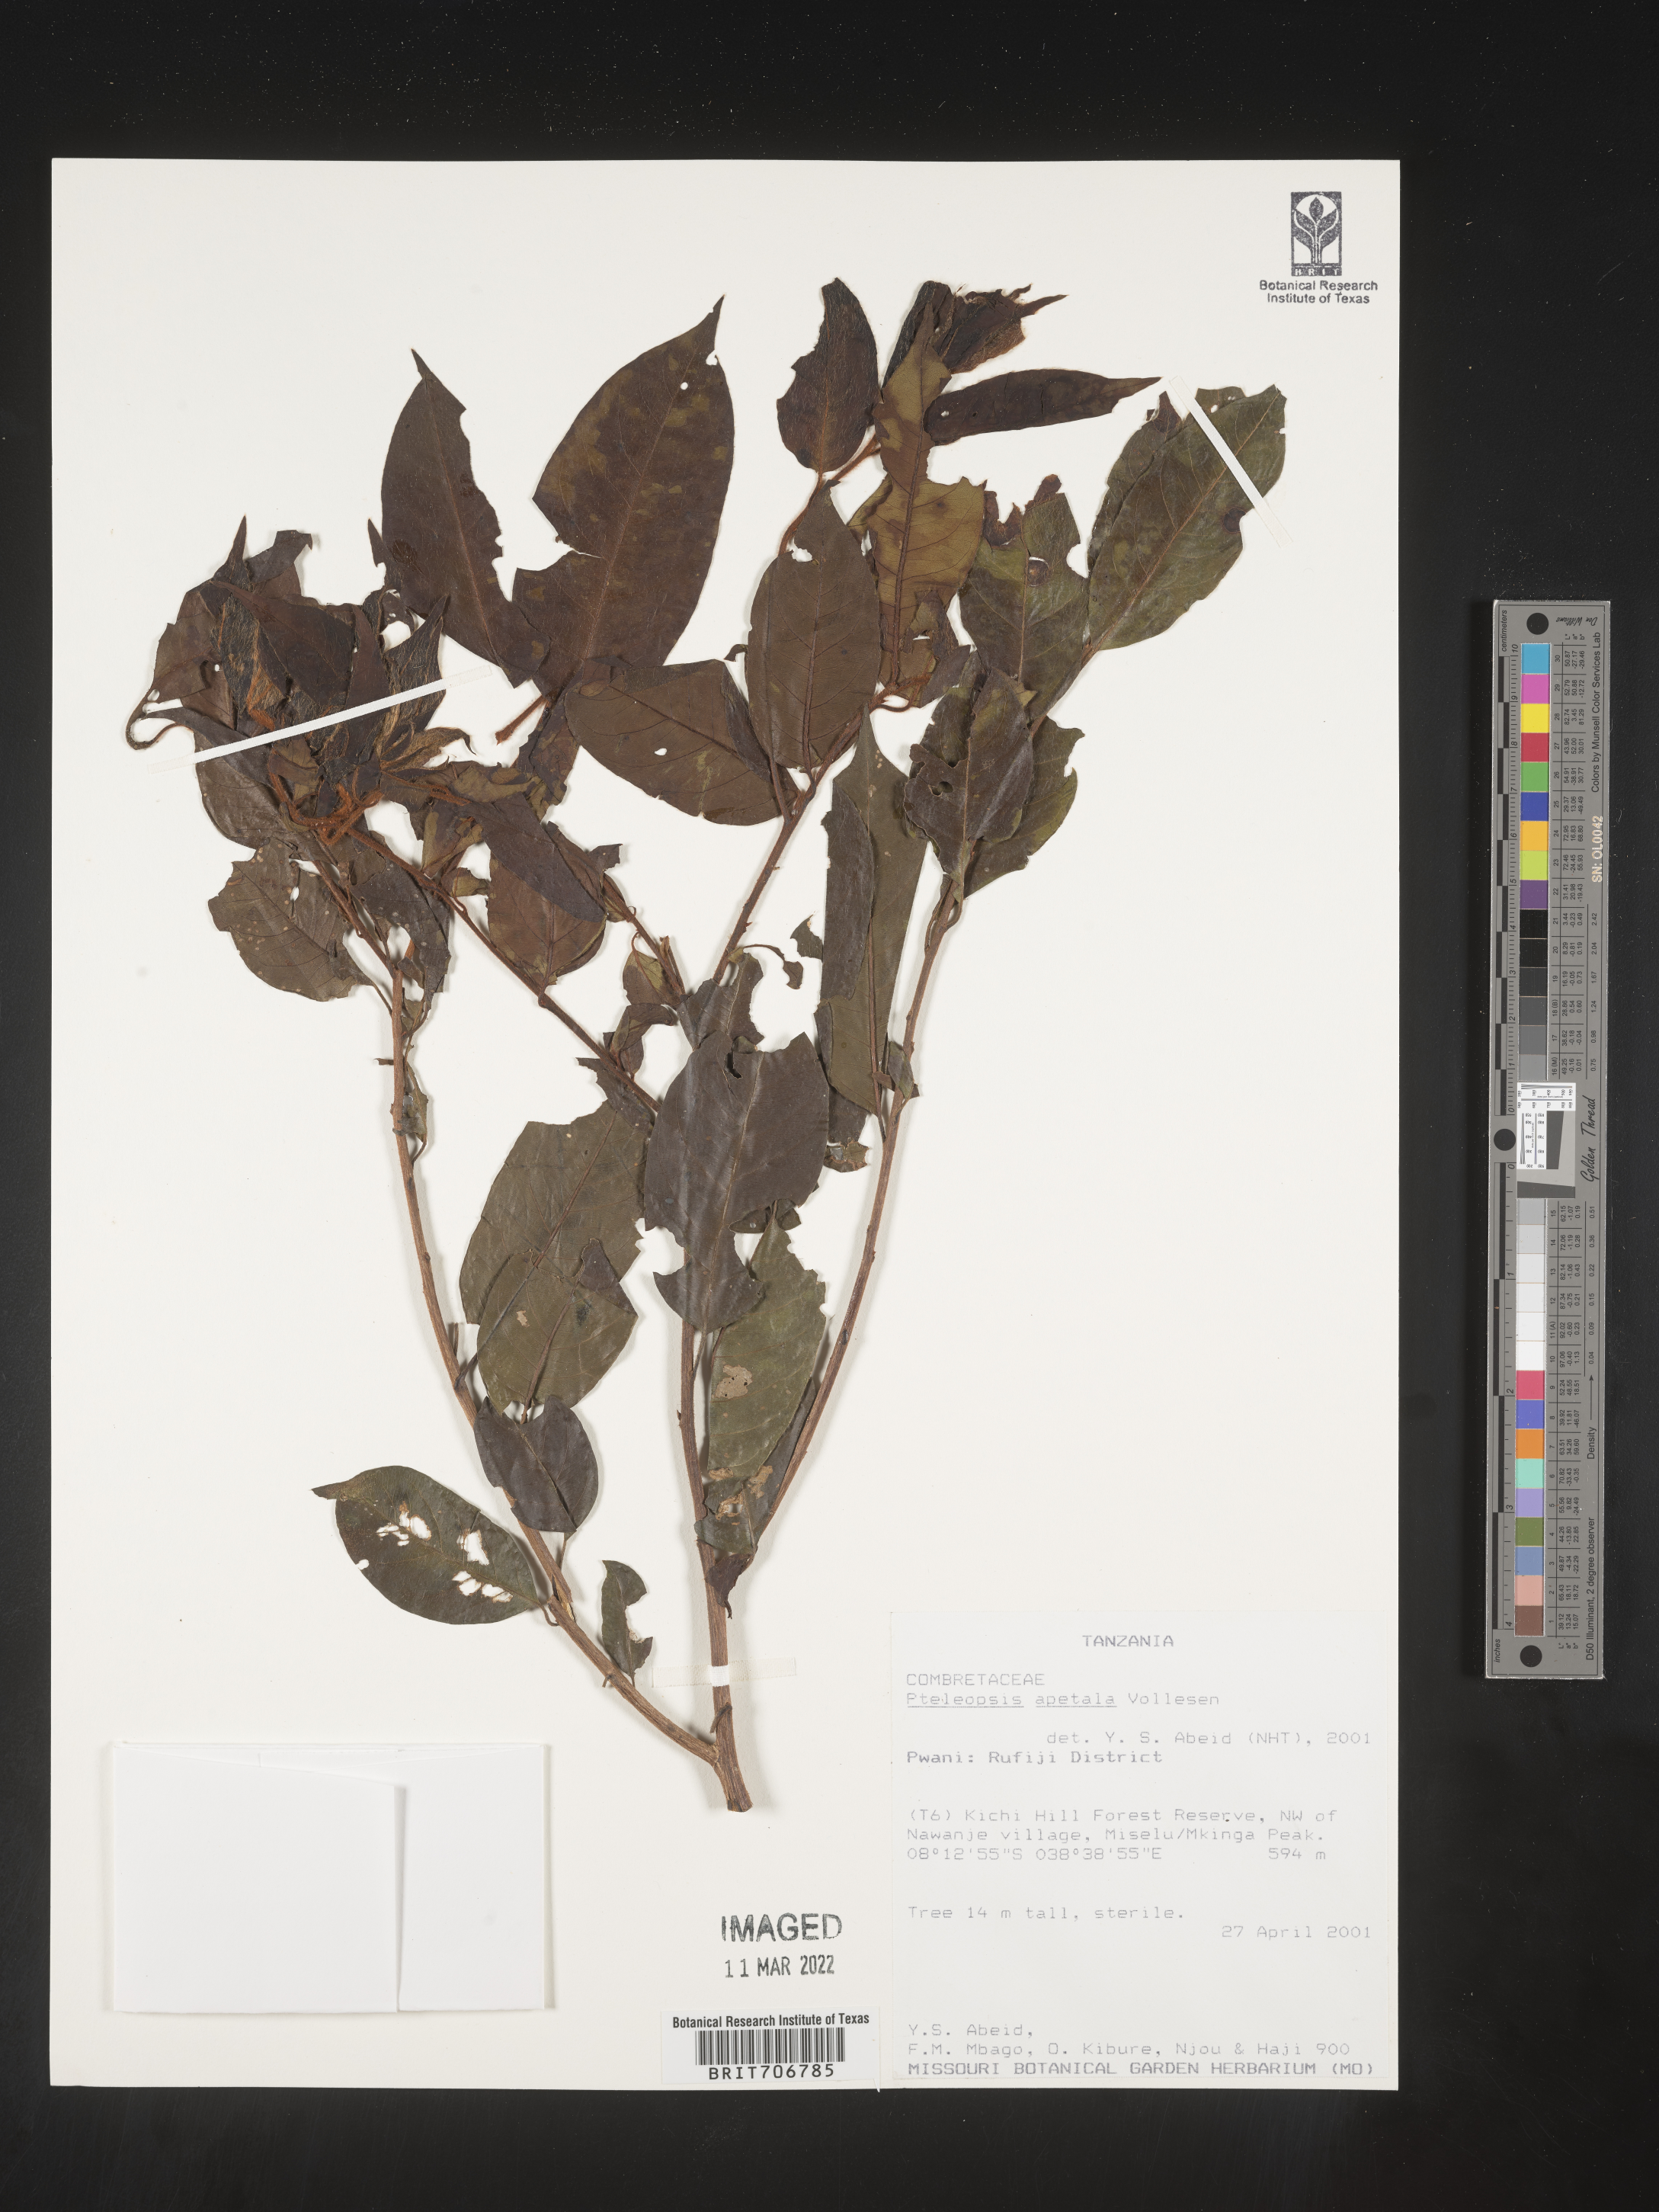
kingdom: Plantae
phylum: Tracheophyta
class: Magnoliopsida
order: Myrtales
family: Combretaceae
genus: Terminalia
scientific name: Terminalia
